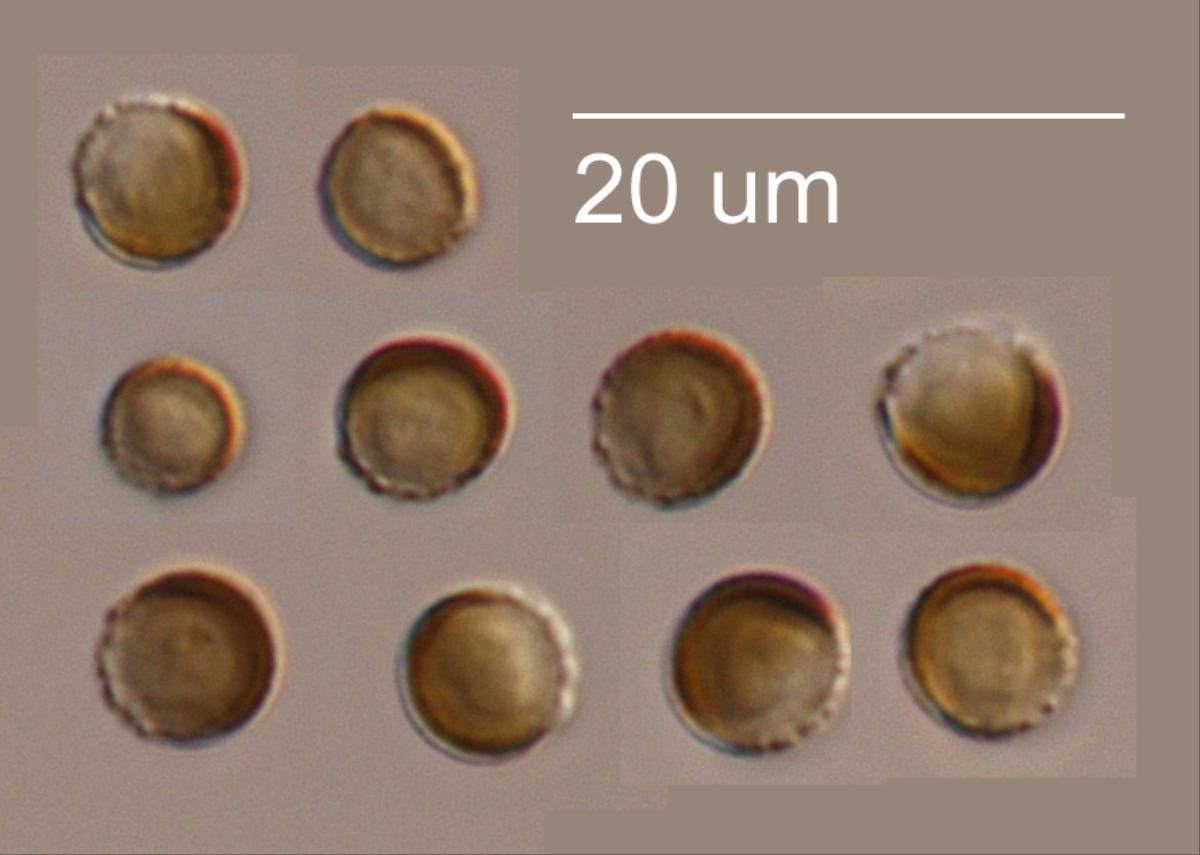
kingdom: Fungi
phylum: Basidiomycota
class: Ustilaginomycetes
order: Ustilaginales
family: Ustilaginaceae
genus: Ustilago
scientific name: Ustilago avenae
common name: Loose smut of oats & oat grass
